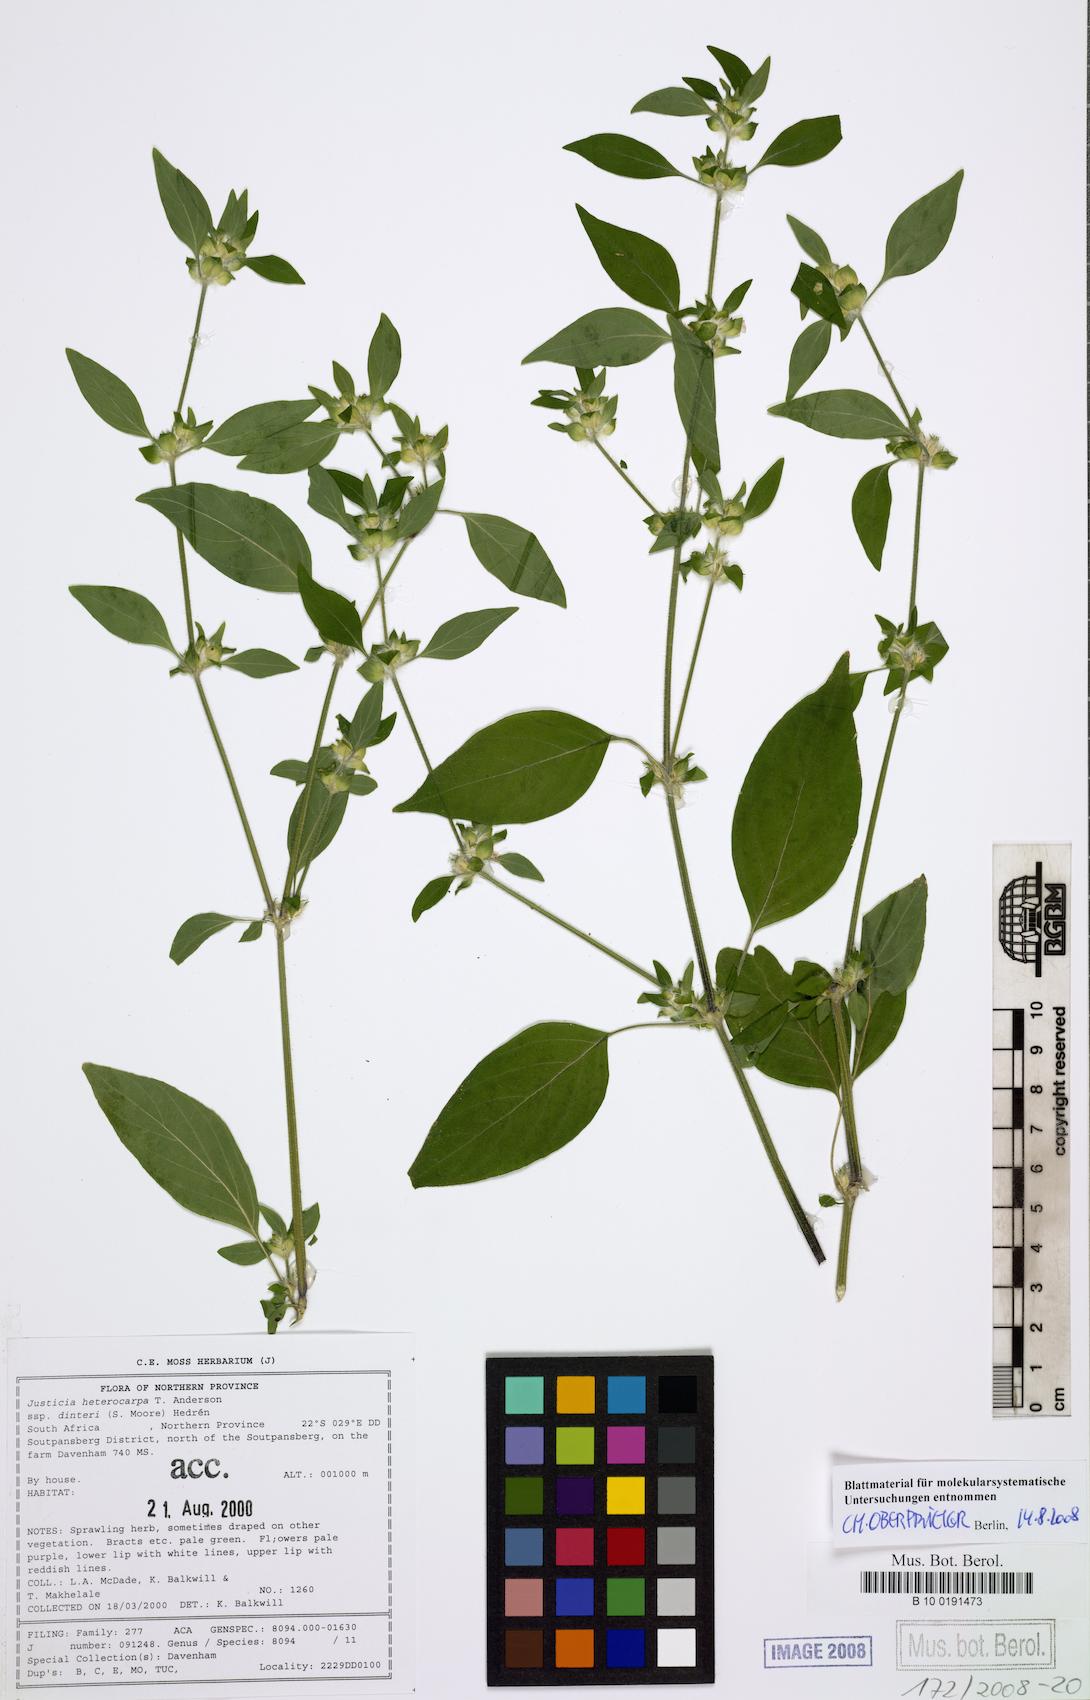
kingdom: Plantae
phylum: Tracheophyta
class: Magnoliopsida
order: Lamiales
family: Acanthaceae
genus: Justicia
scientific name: Justicia heterocarpa
